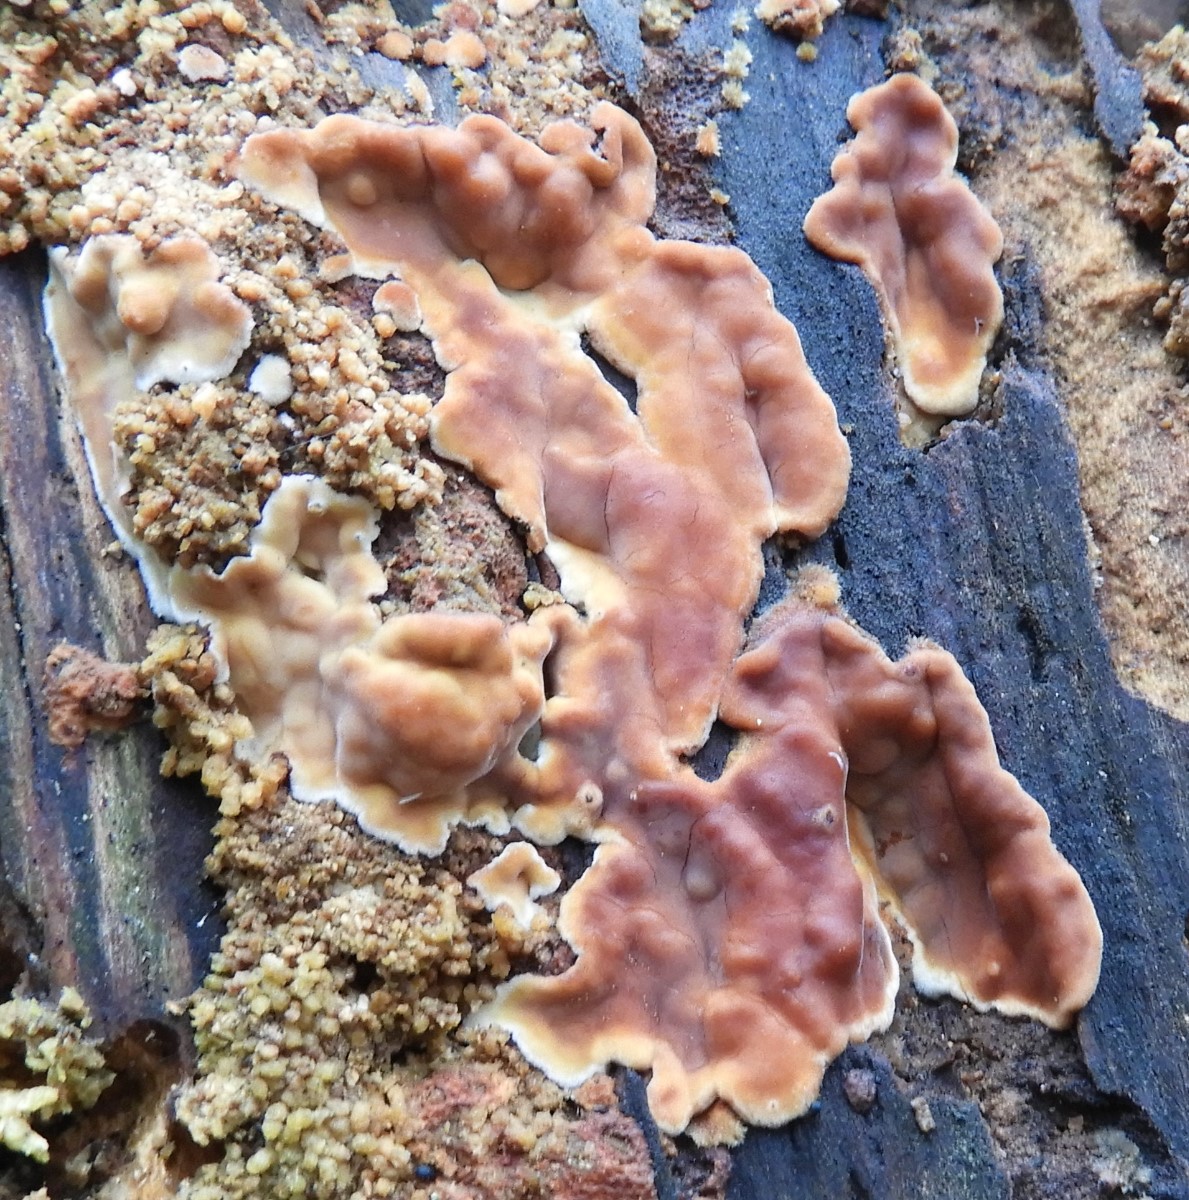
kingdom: Fungi
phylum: Basidiomycota
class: Agaricomycetes
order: Polyporales
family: Dacryobolaceae
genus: Dacryobolus
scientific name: Dacryobolus karstenii
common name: glat vulkanskorpe
